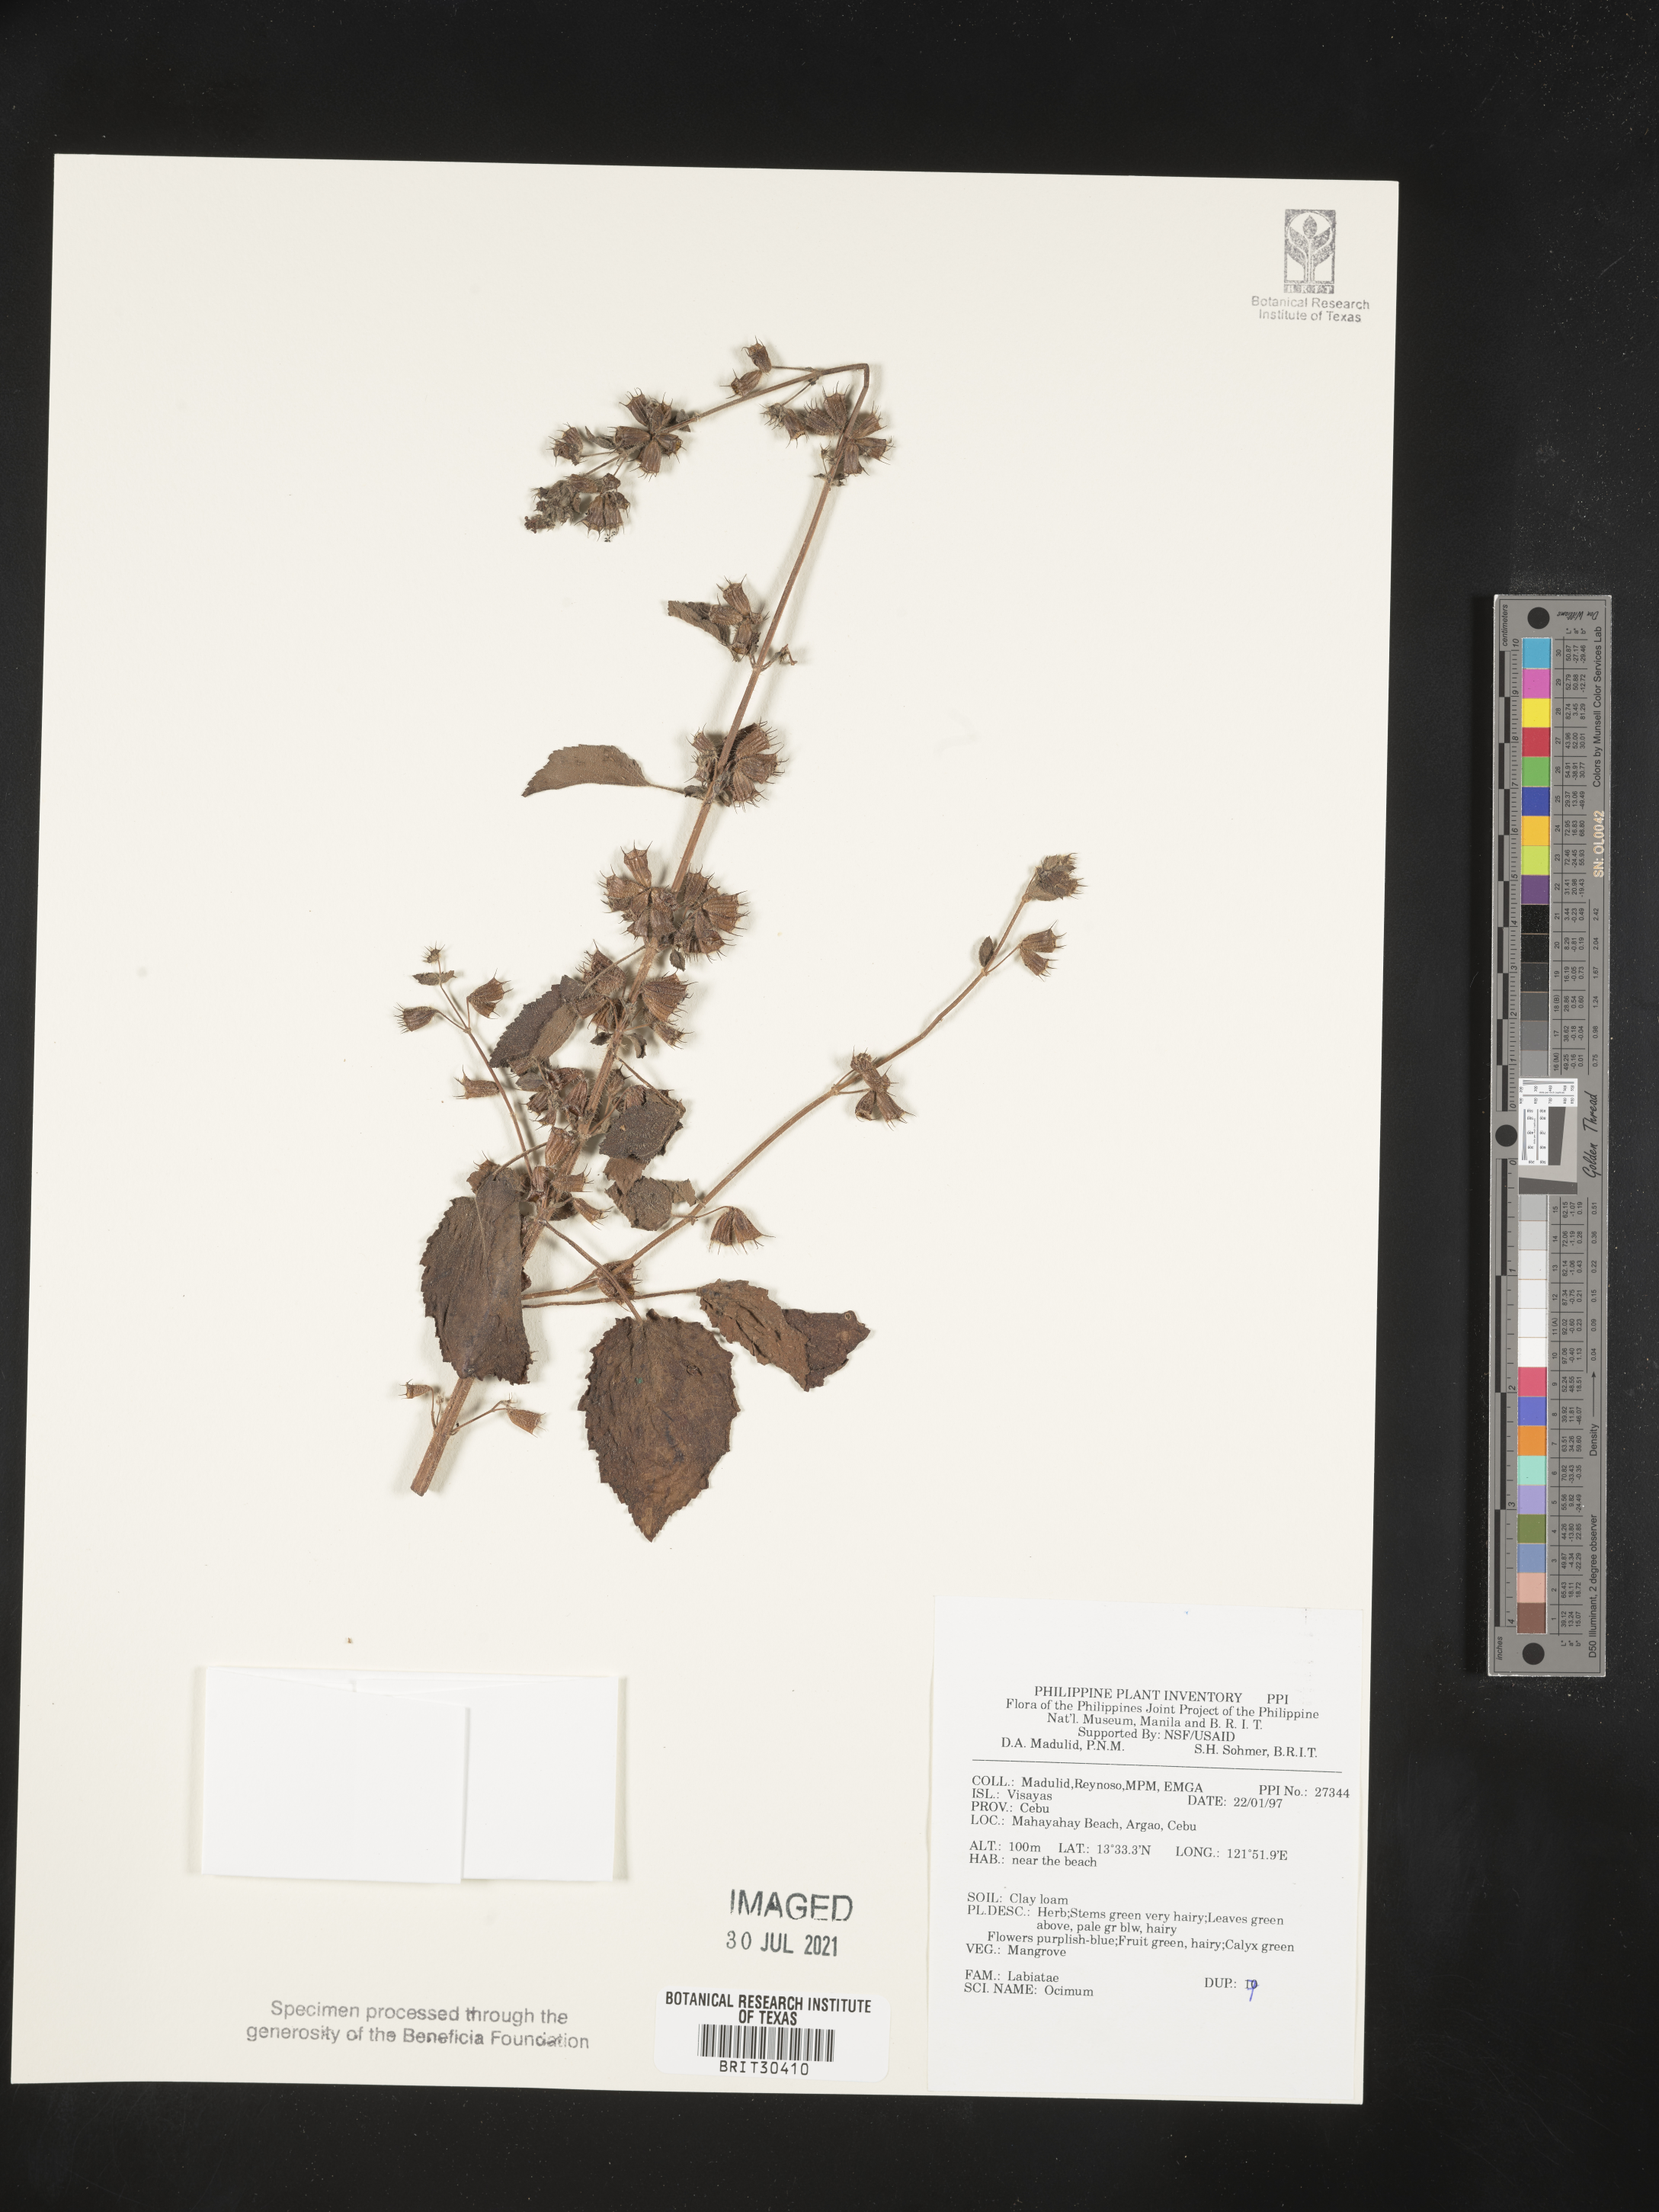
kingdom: Plantae
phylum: Tracheophyta
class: Magnoliopsida
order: Lamiales
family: Lamiaceae
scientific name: Lamiaceae
